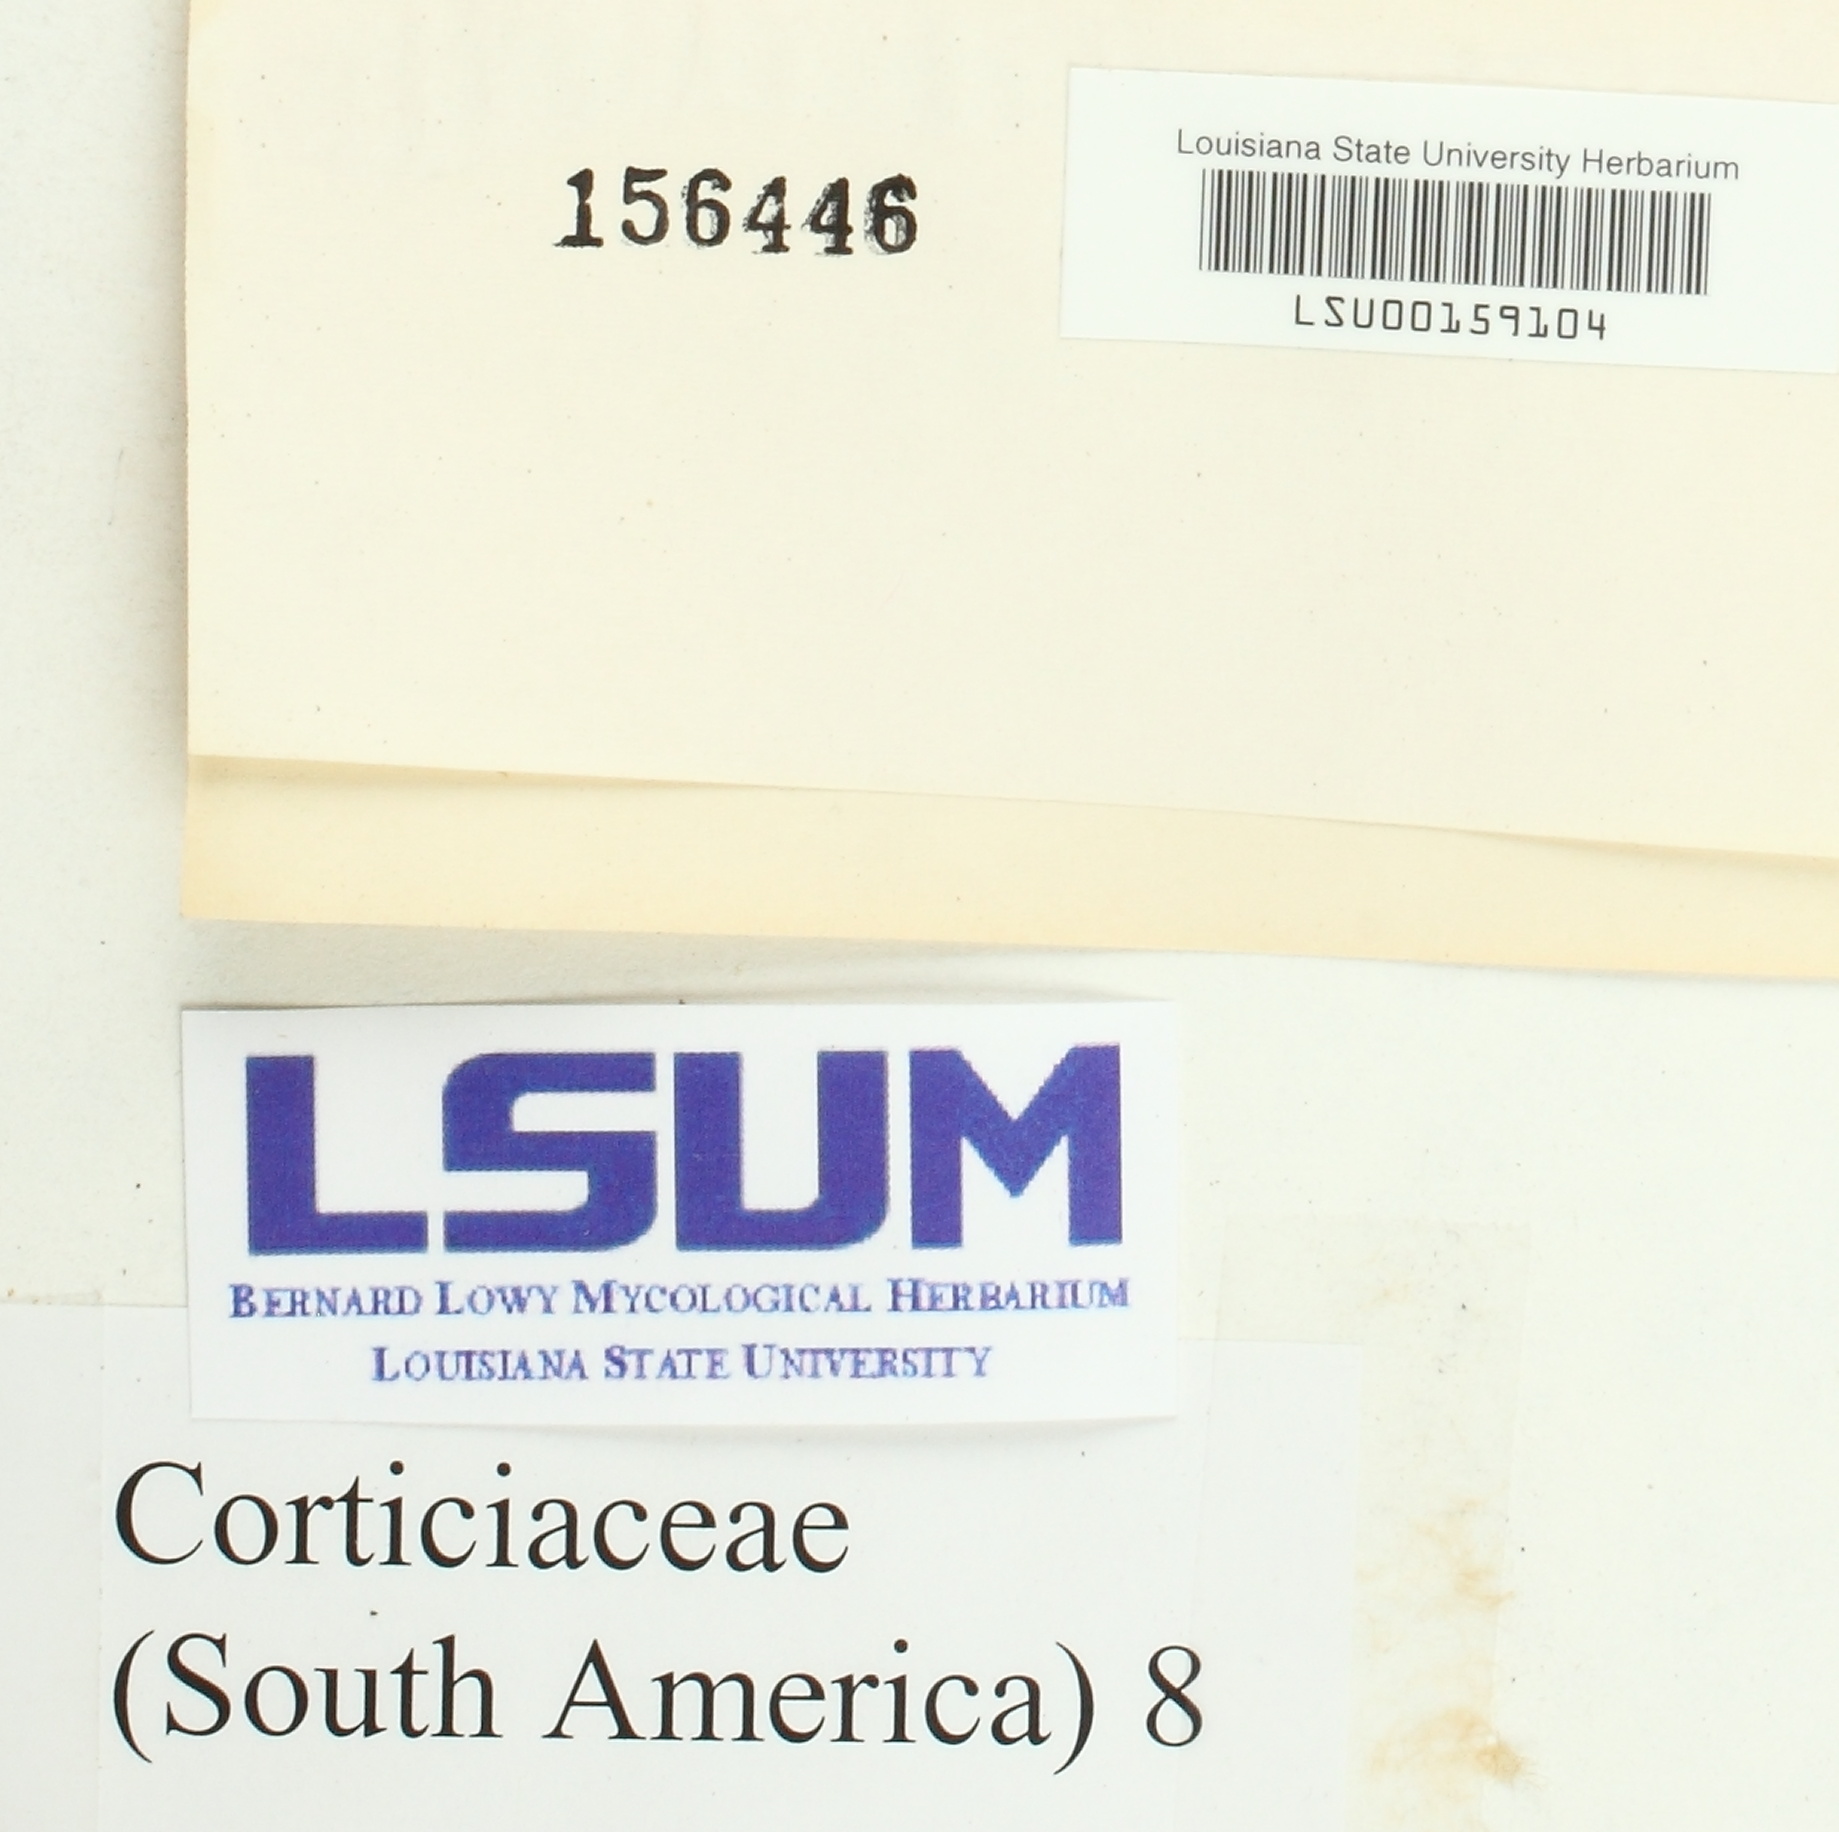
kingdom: Fungi
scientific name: Fungi
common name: Fungi
